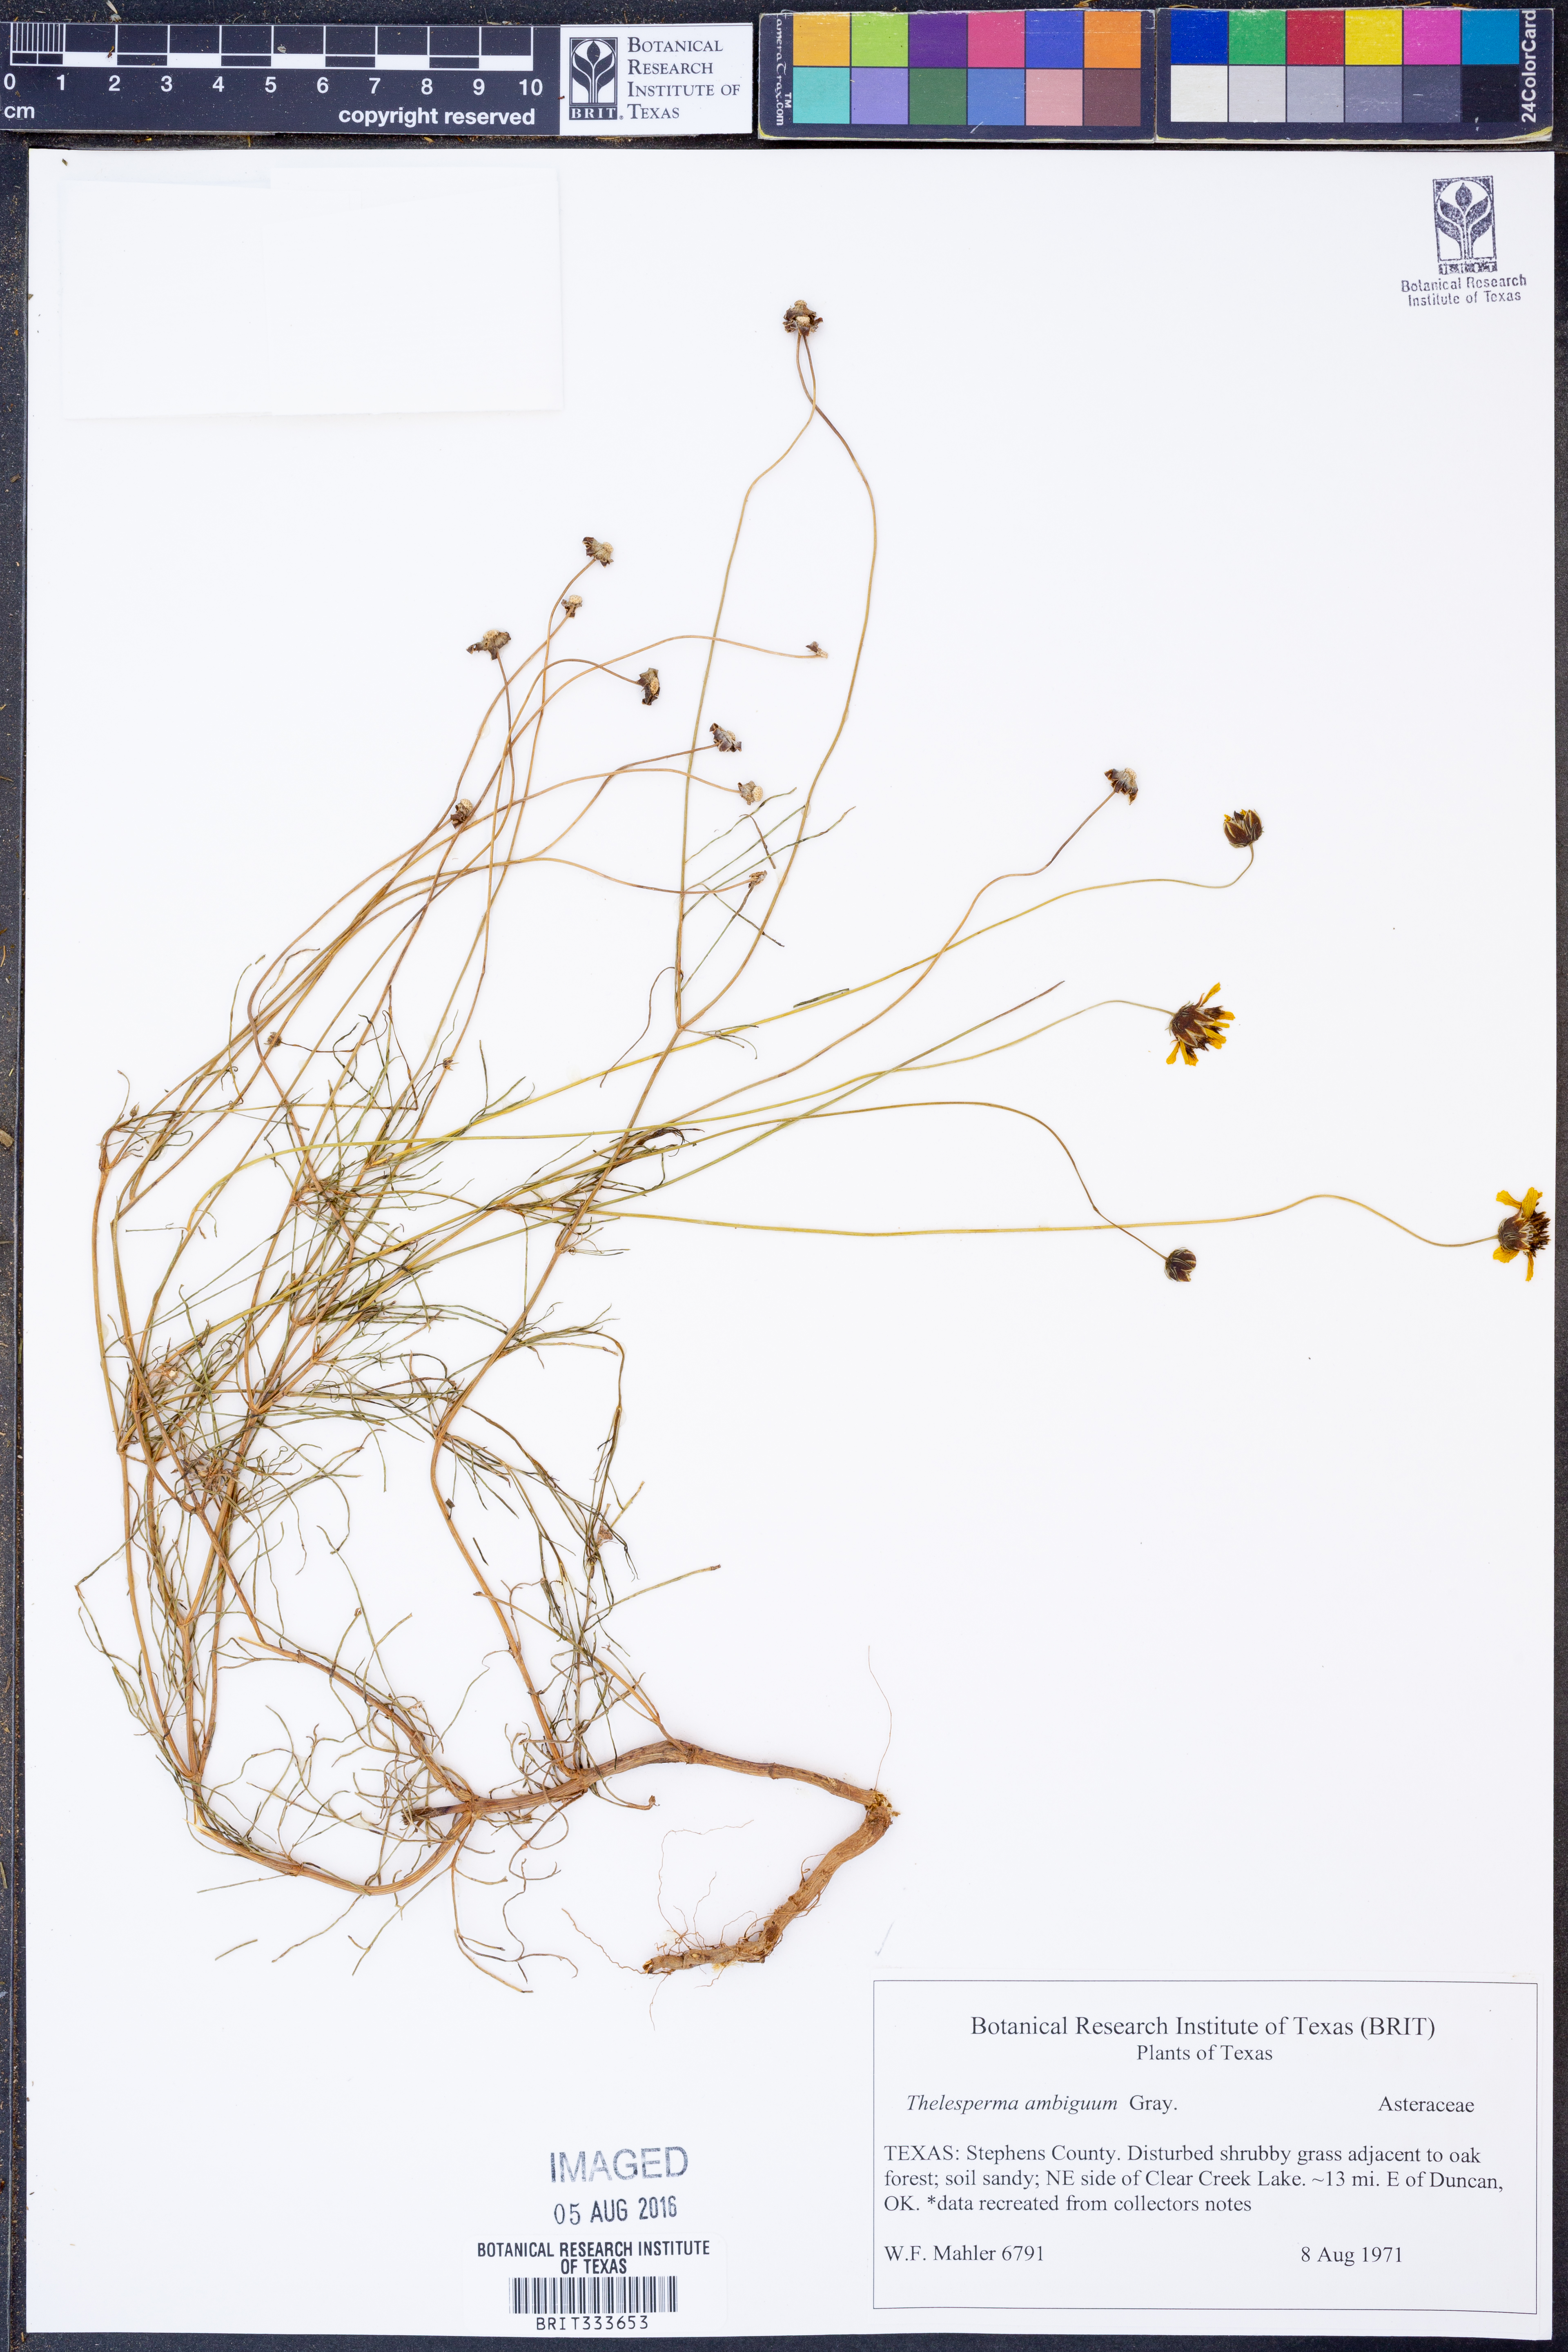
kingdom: Plantae
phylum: Tracheophyta
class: Magnoliopsida
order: Asterales
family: Asteraceae
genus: Thelesperma
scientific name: Thelesperma ambiguum
